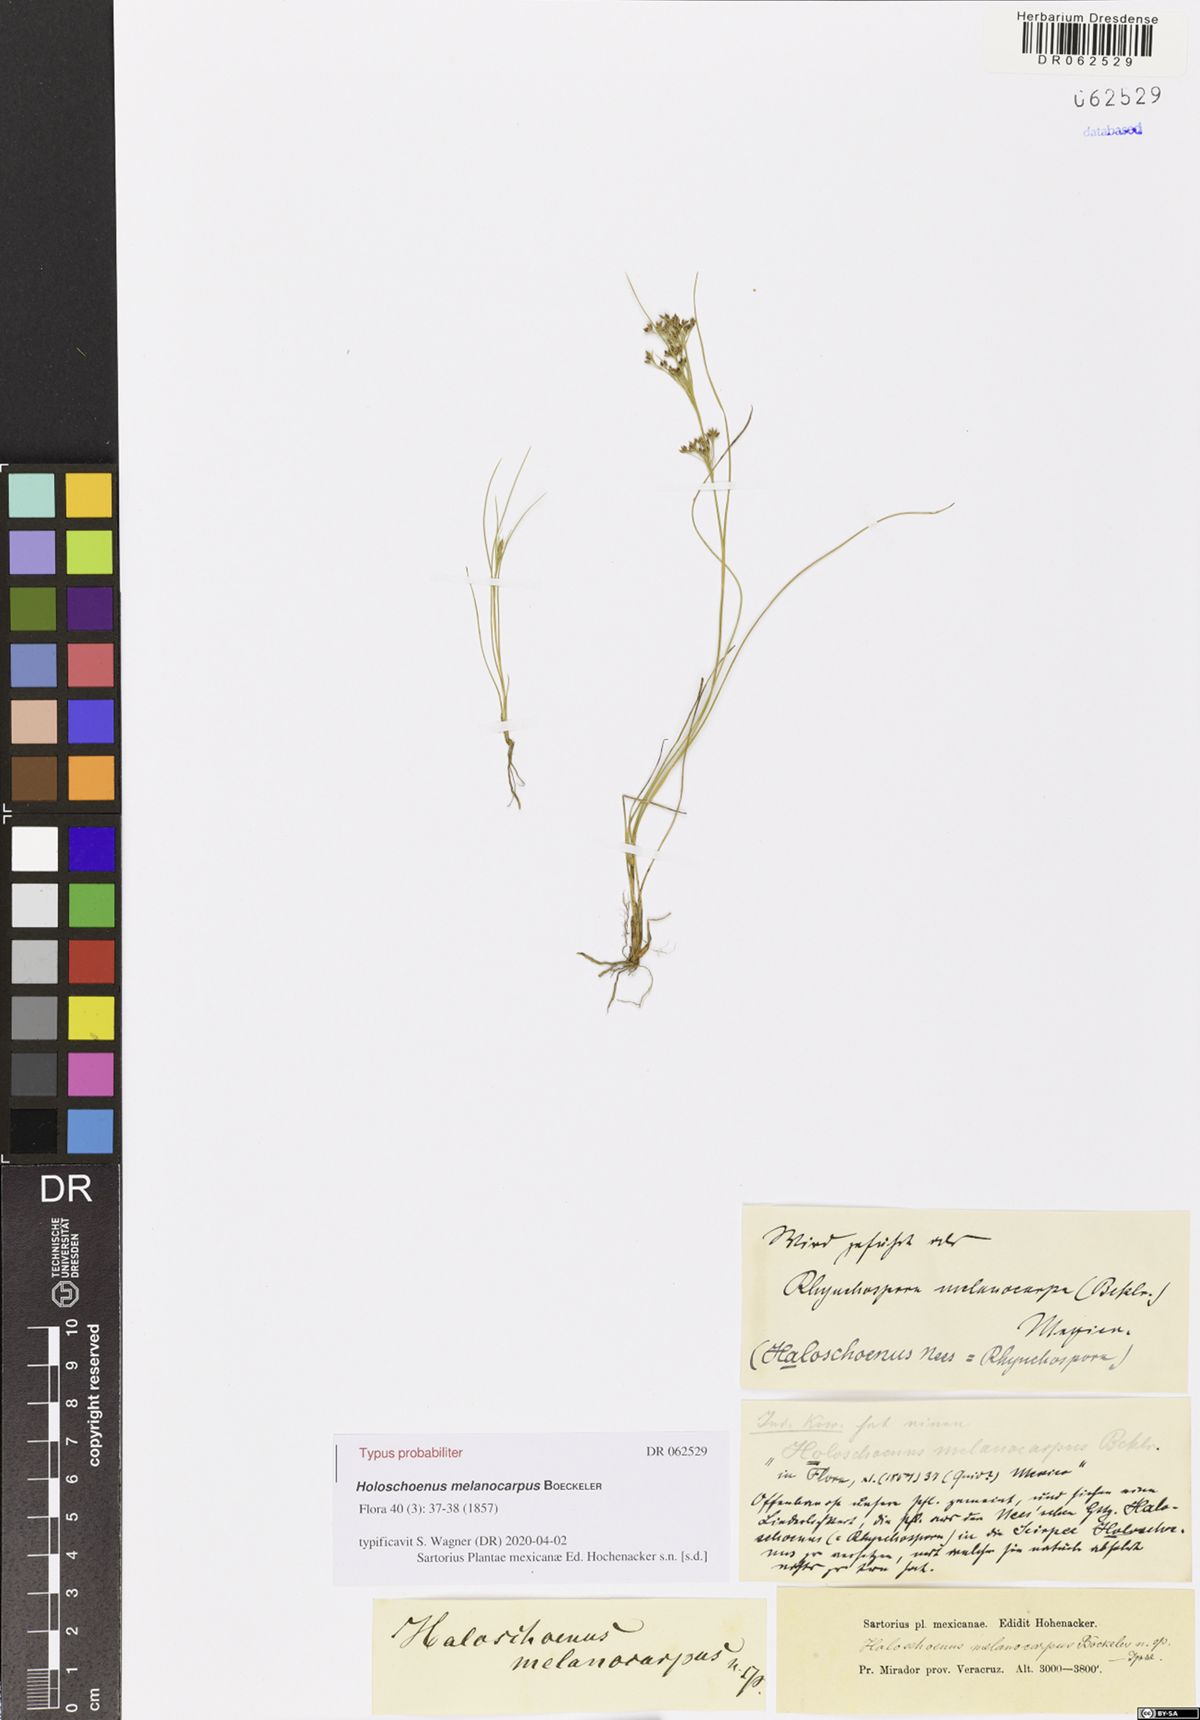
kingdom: Plantae
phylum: Tracheophyta
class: Liliopsida
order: Poales
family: Cyperaceae
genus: Scirpoides
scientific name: Scirpoides Holoschoenus melanocarpus
